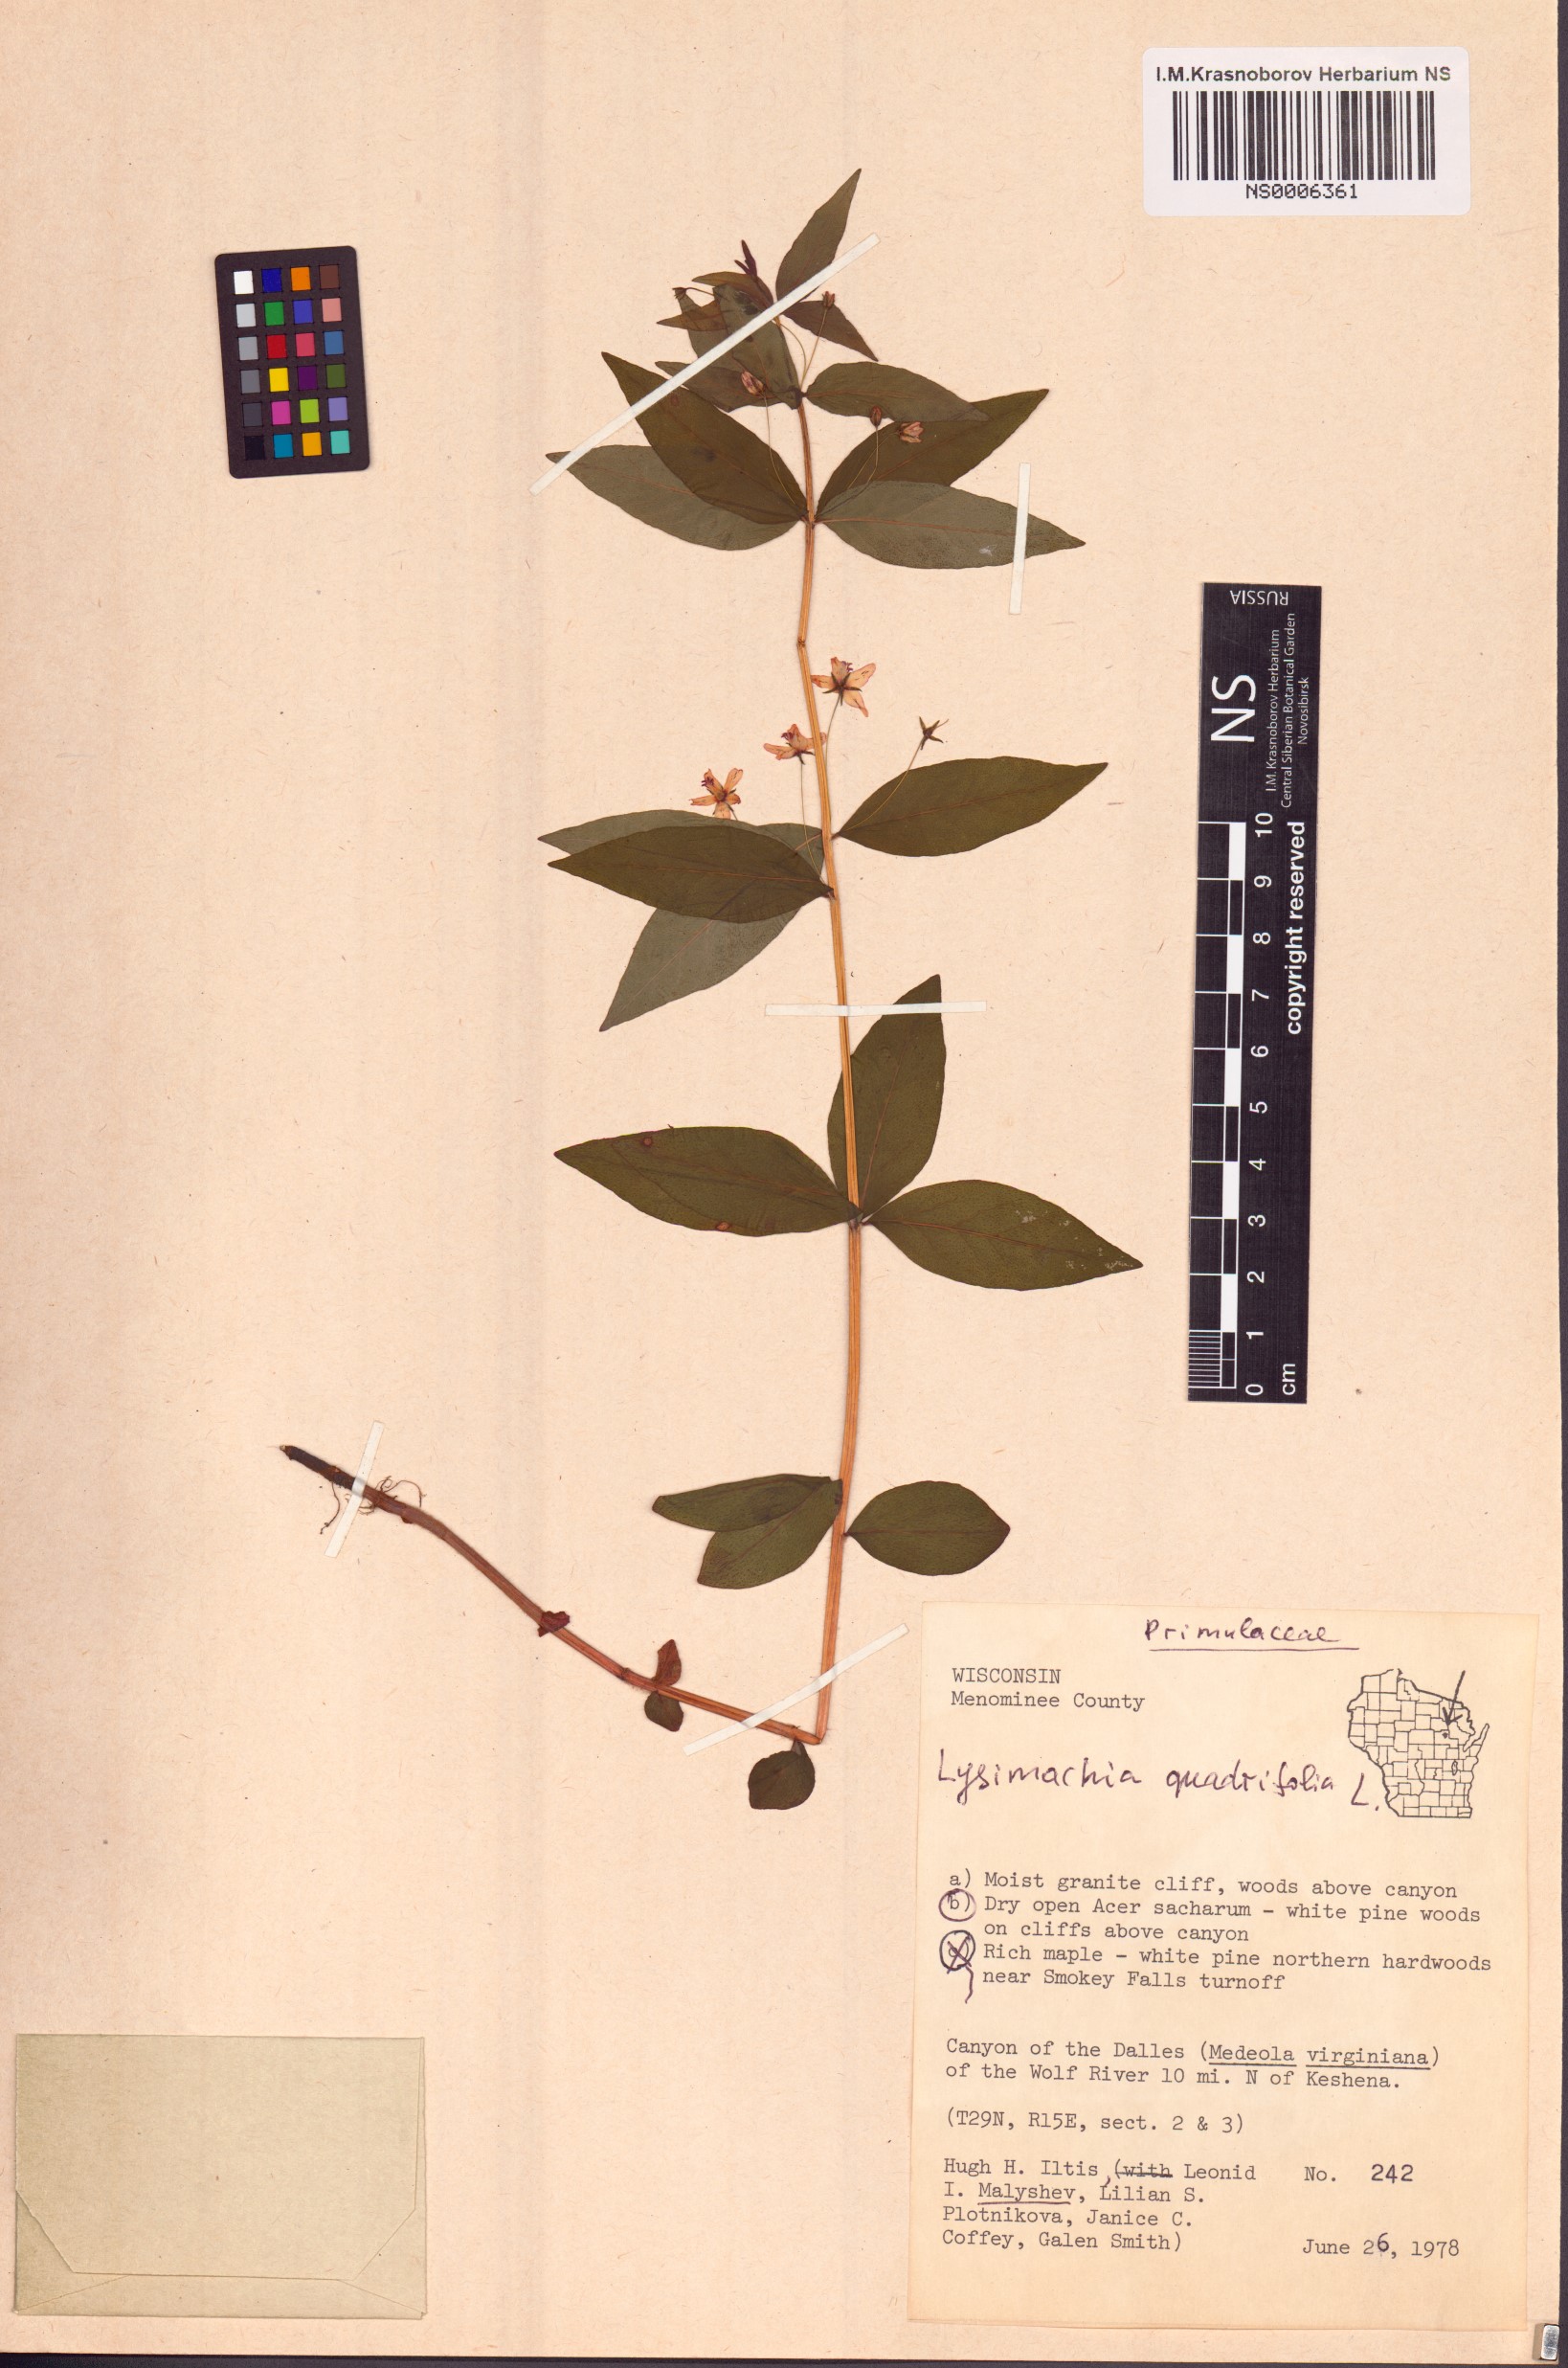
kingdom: Plantae
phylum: Tracheophyta
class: Magnoliopsida
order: Ericales
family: Primulaceae
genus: Lysimachia
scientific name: Lysimachia quadrifolia
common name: Whorled loosestrife
